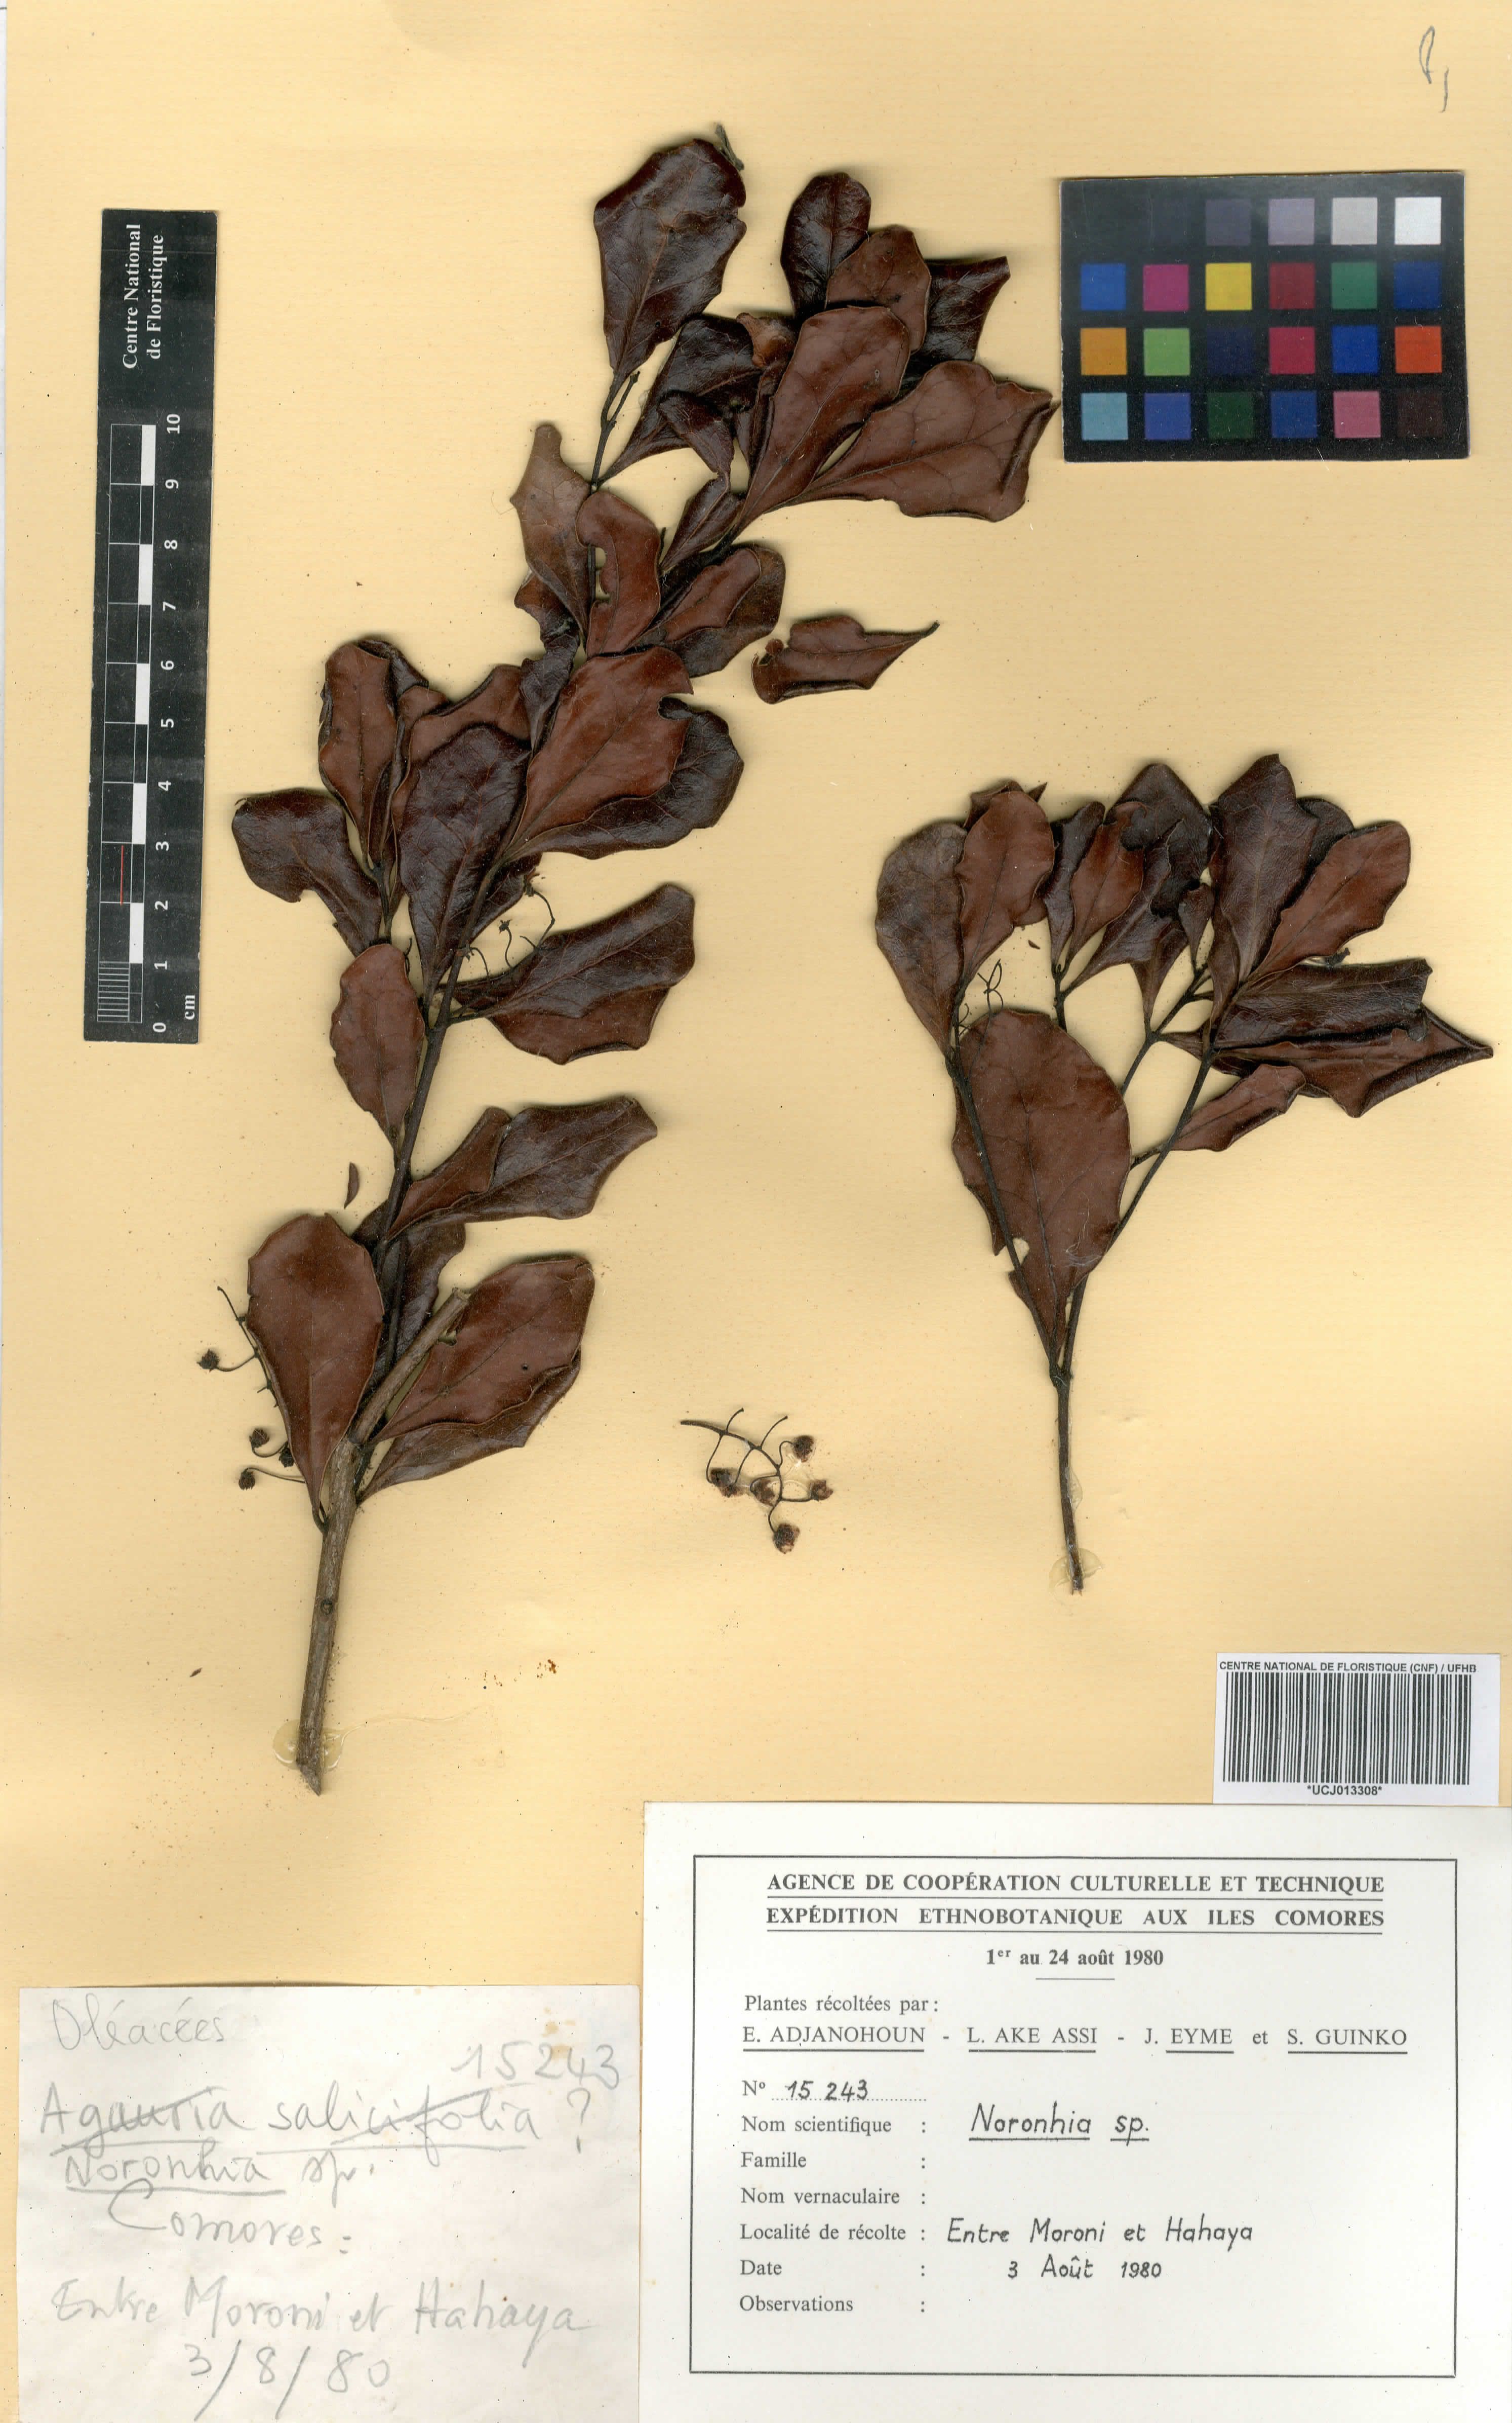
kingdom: Plantae
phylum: Tracheophyta
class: Magnoliopsida
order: Lamiales
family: Oleaceae
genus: Noronhia
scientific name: Noronhia
